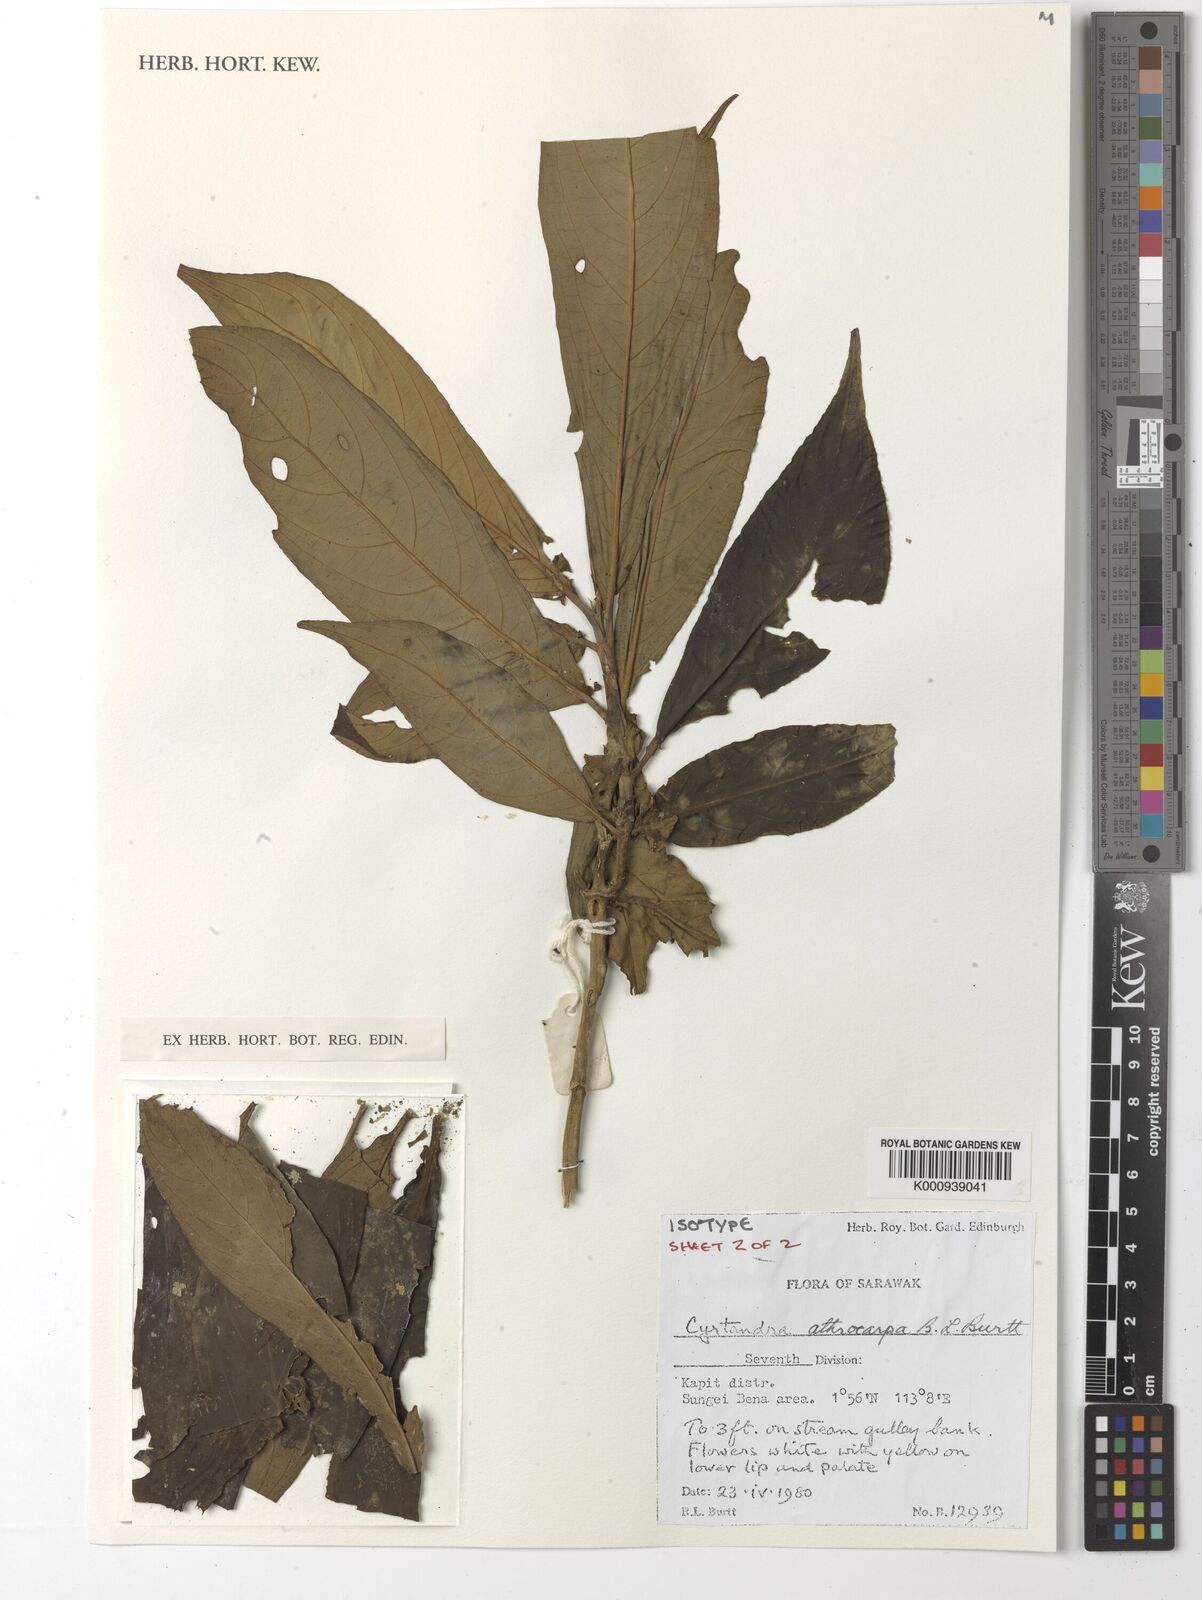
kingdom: Plantae
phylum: Tracheophyta
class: Magnoliopsida
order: Lamiales
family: Gesneriaceae
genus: Cyrtandra
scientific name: Cyrtandra athrocarpa
